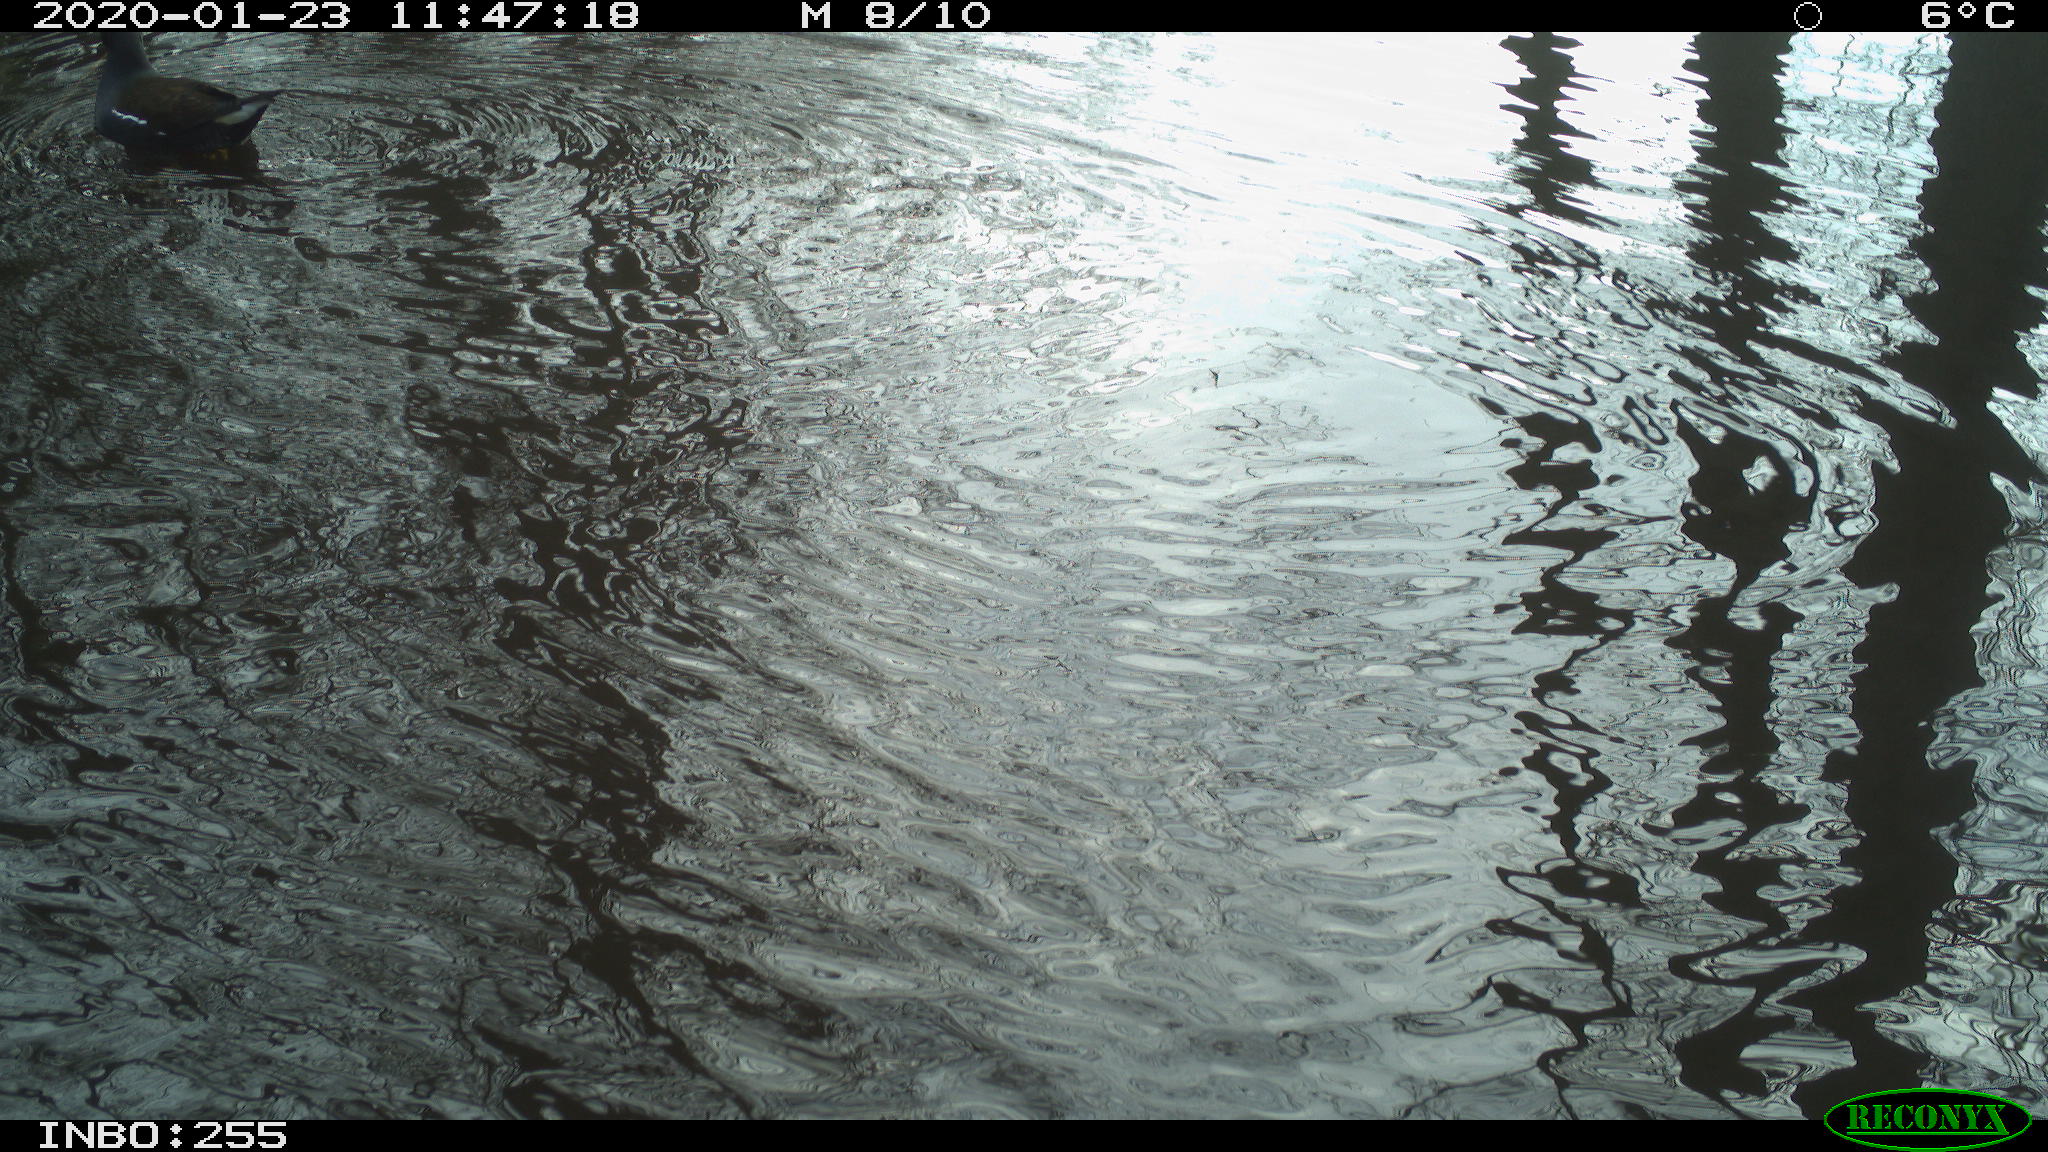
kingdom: Animalia
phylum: Chordata
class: Aves
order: Gruiformes
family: Rallidae
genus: Gallinula
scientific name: Gallinula chloropus
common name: Common moorhen
